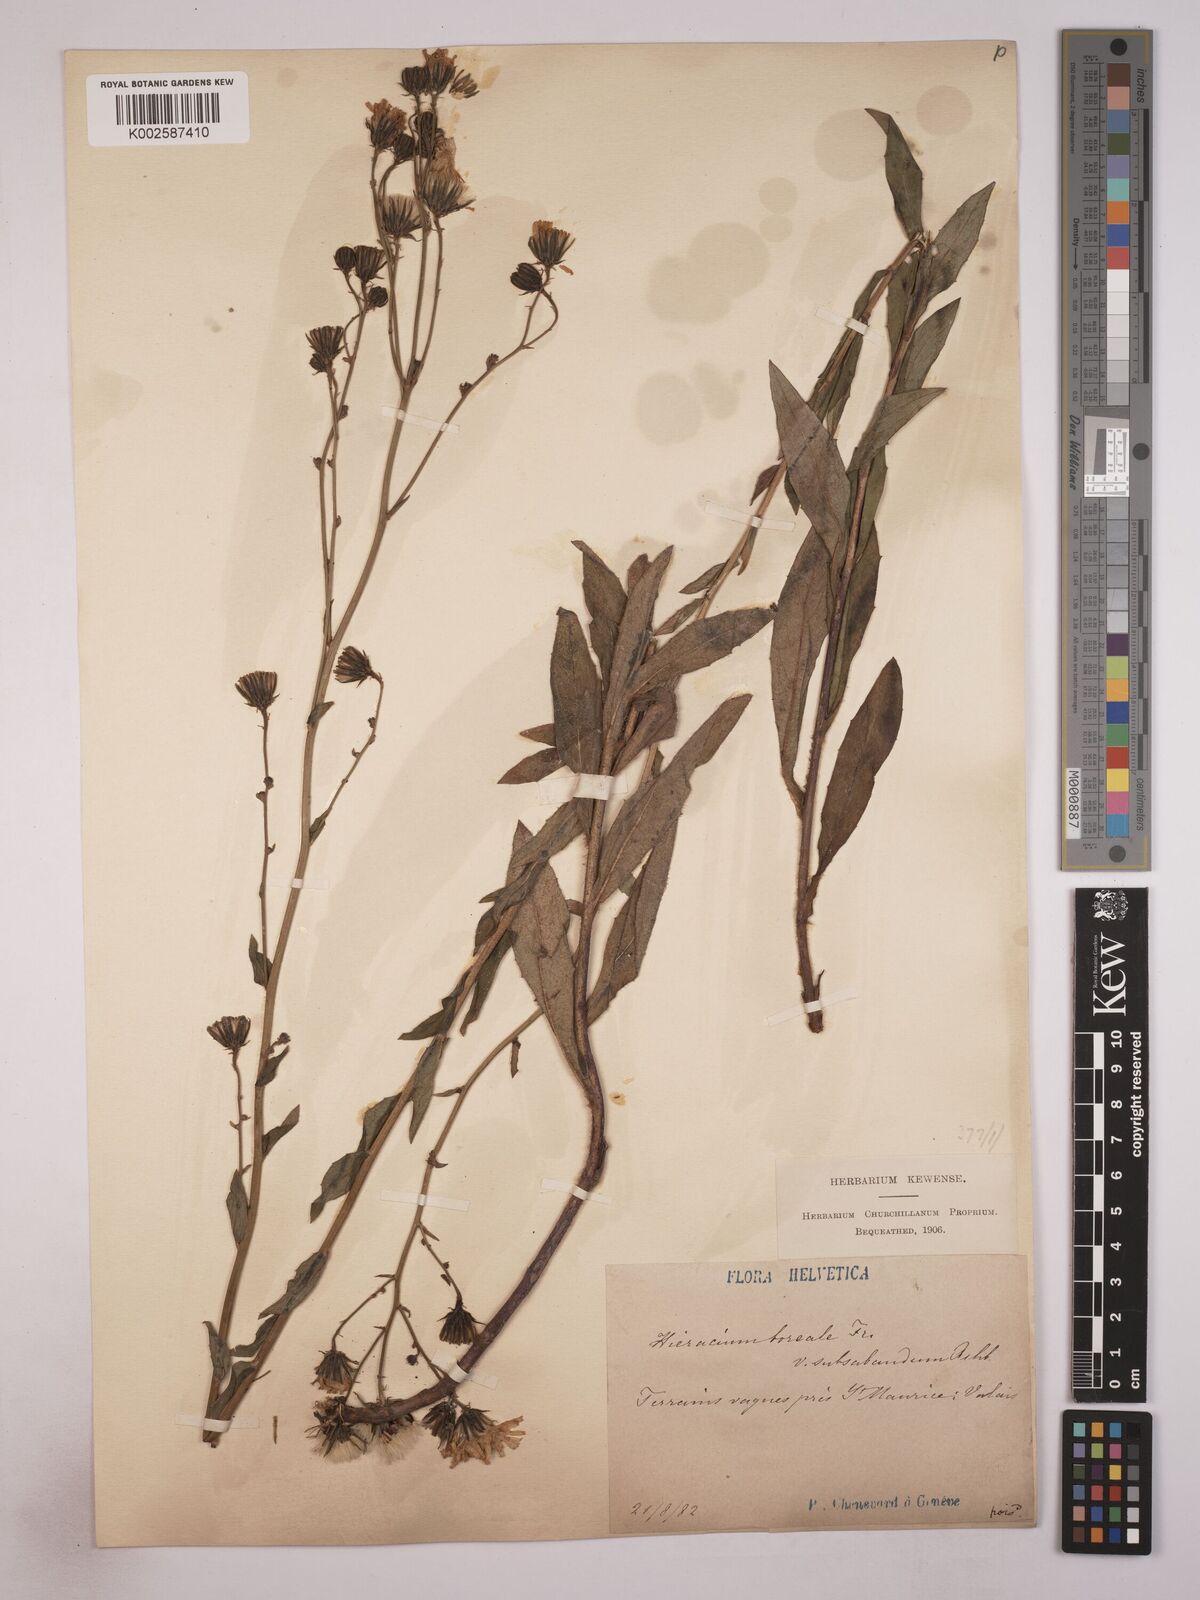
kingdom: Plantae
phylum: Tracheophyta
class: Magnoliopsida
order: Asterales
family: Asteraceae
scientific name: Asteraceae
